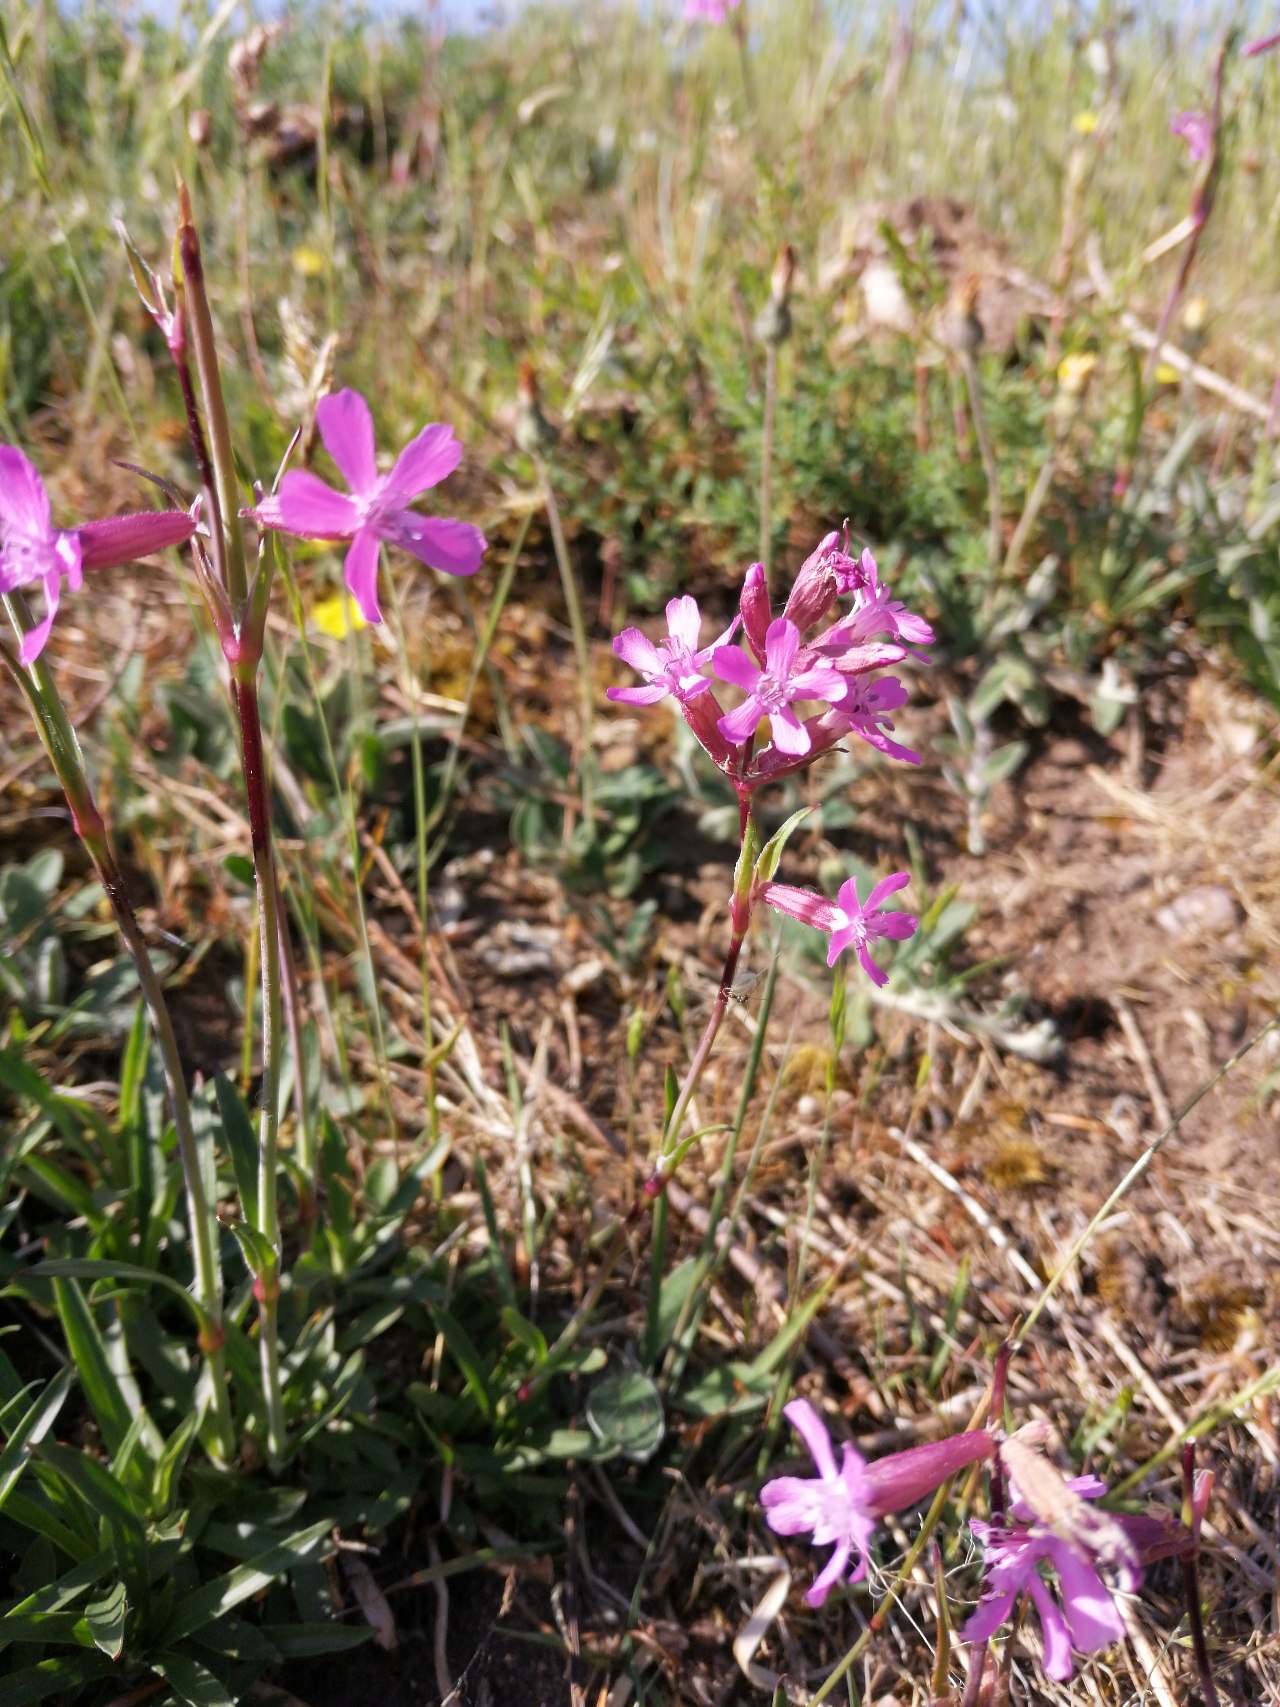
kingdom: Plantae
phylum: Tracheophyta
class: Magnoliopsida
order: Caryophyllales
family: Caryophyllaceae
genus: Viscaria
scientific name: Viscaria vulgaris
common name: Tjærenellike
